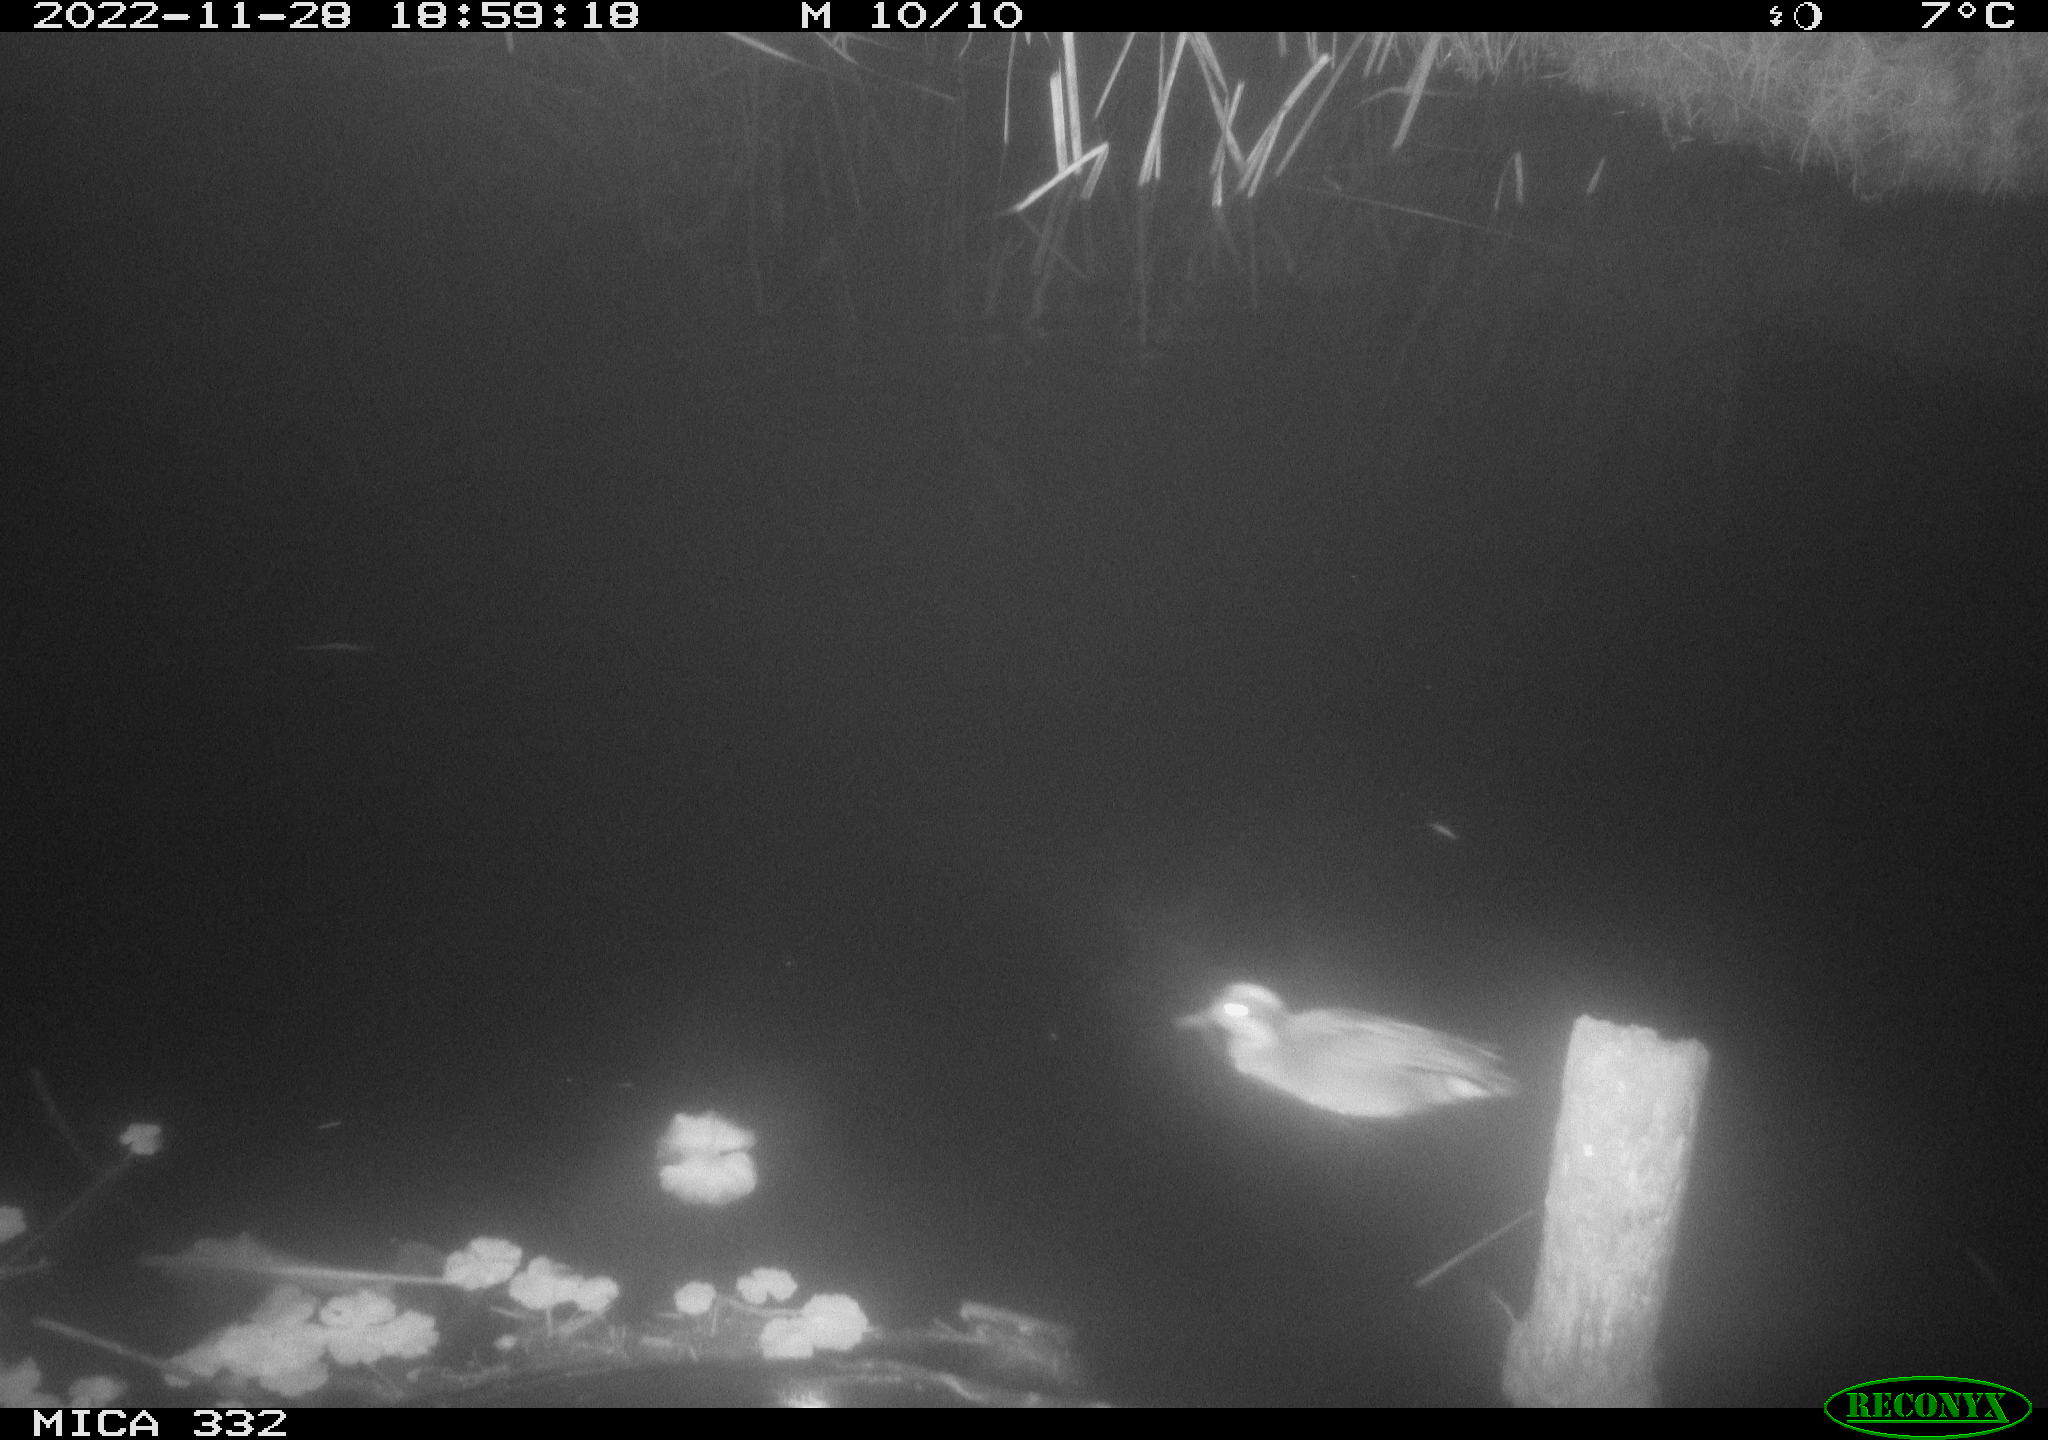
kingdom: Animalia
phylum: Chordata
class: Aves
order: Anseriformes
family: Anatidae
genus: Anas
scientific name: Anas
